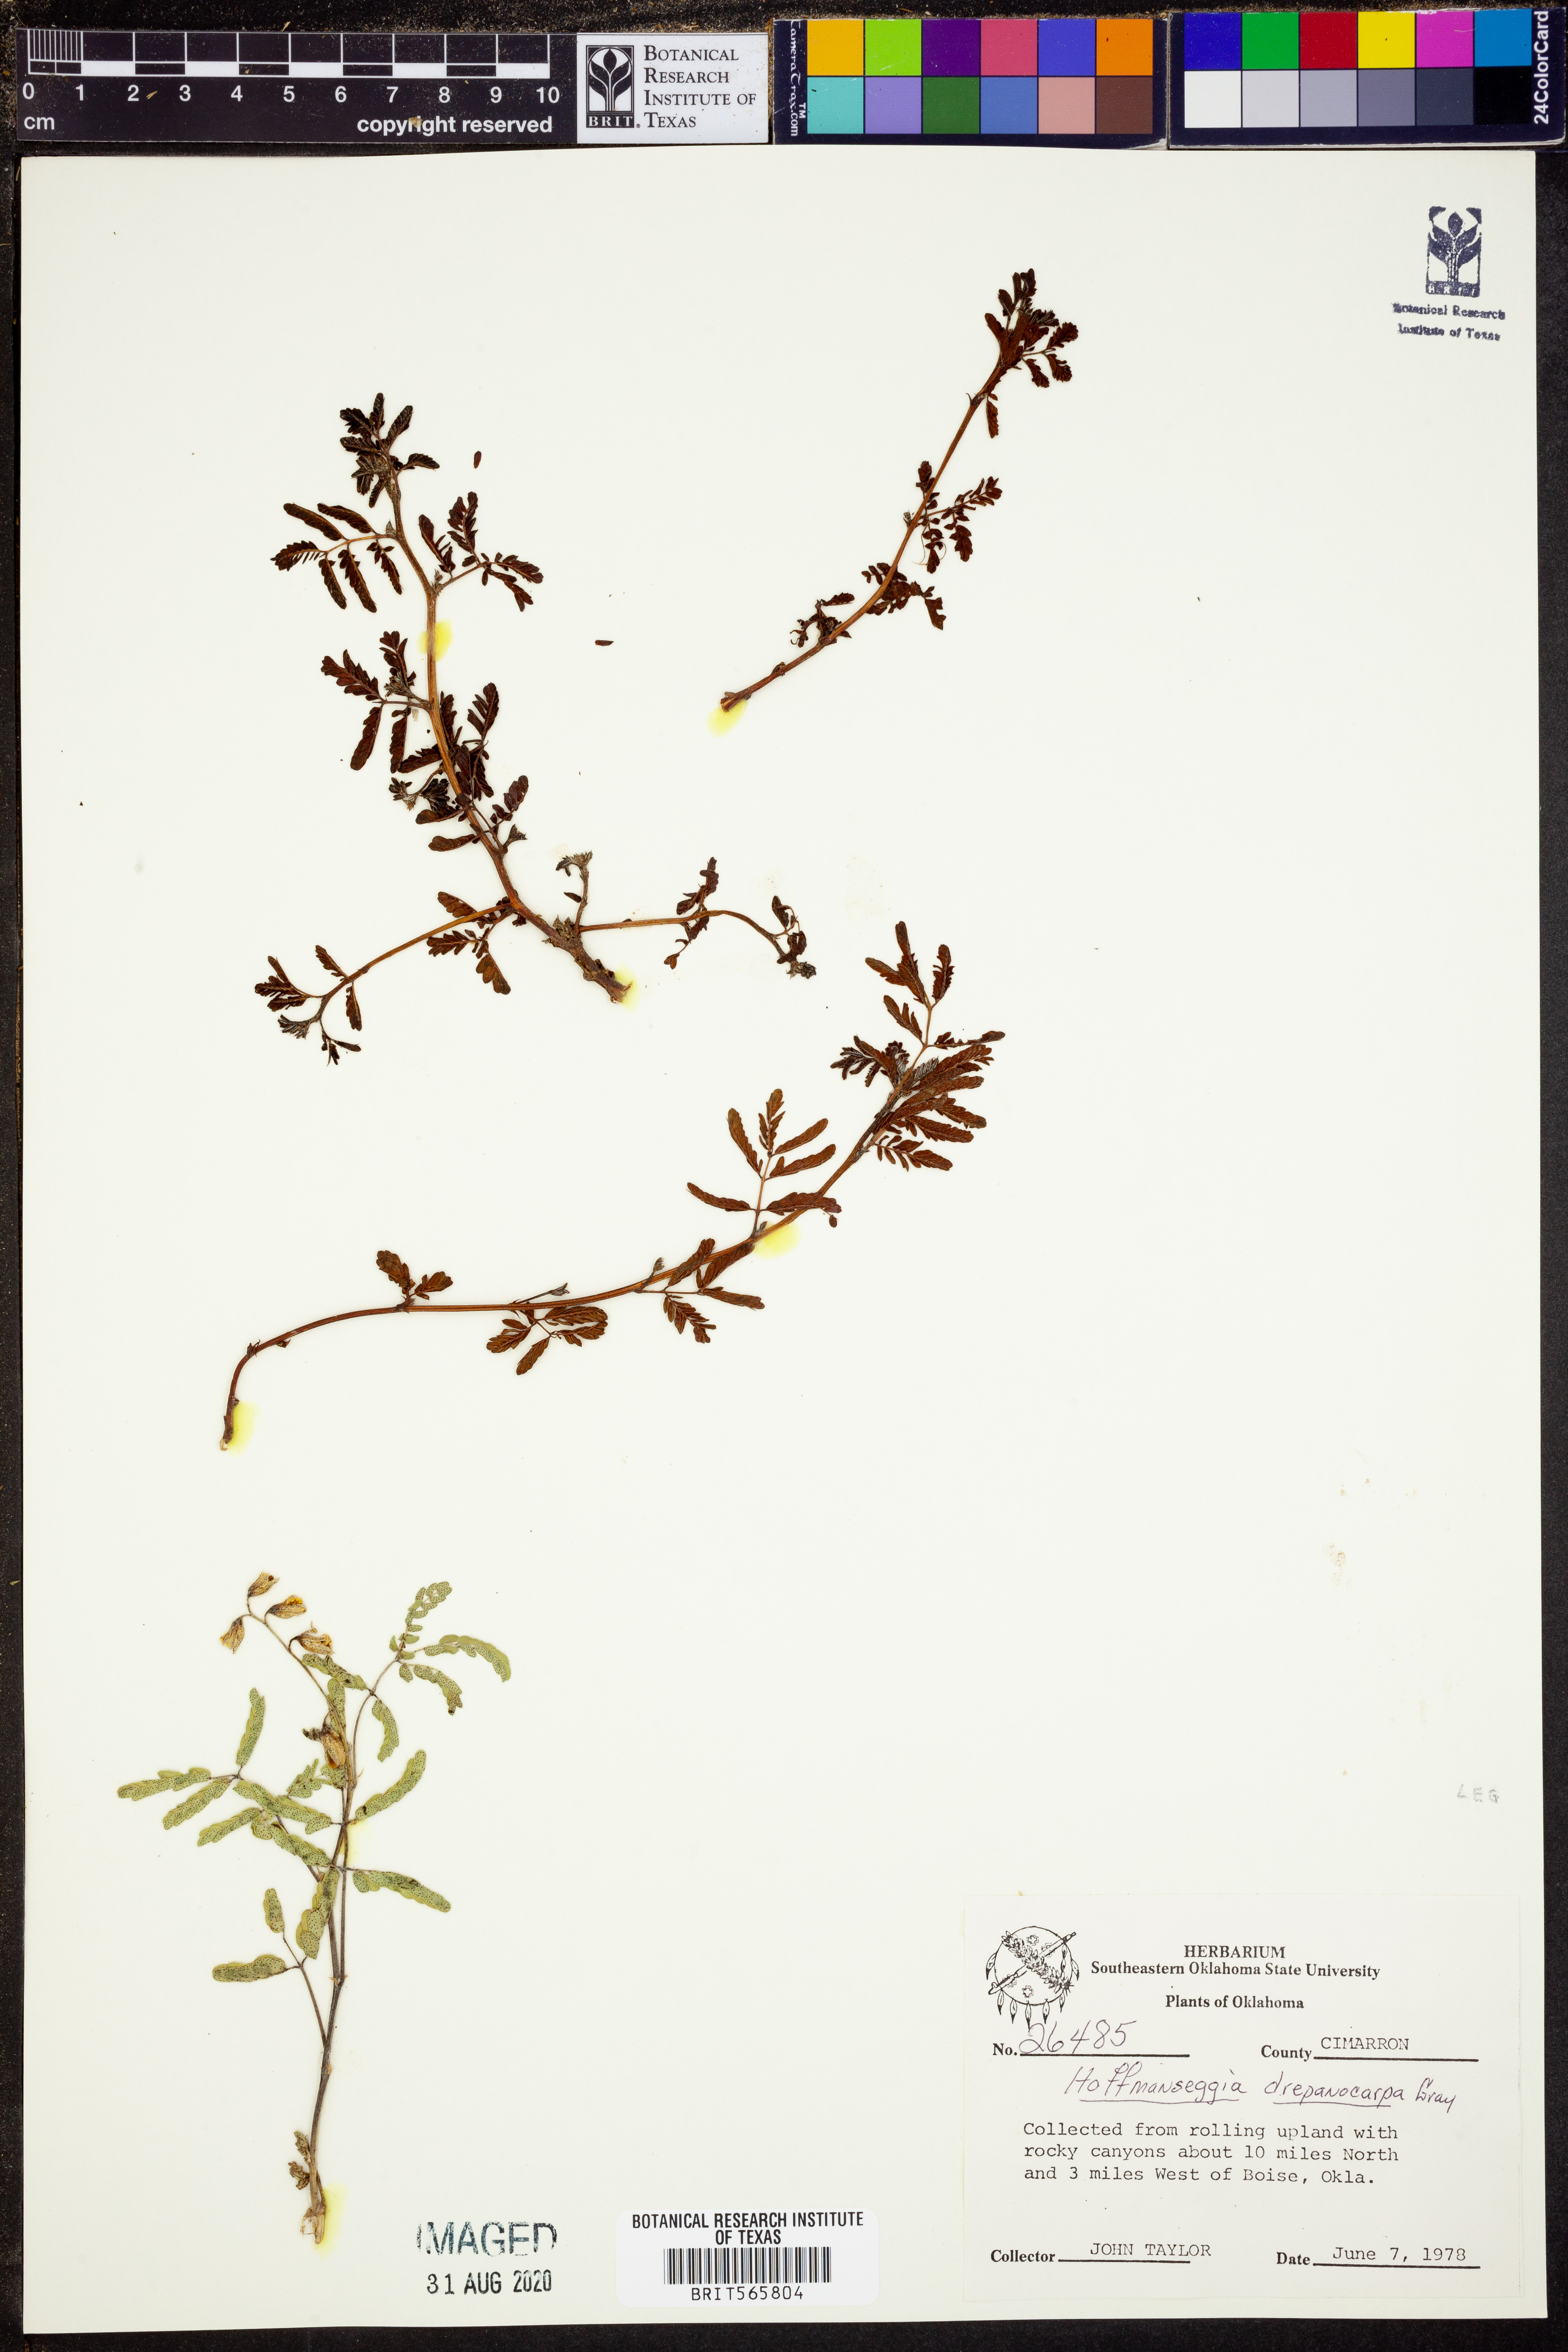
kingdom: Plantae
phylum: Tracheophyta
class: Magnoliopsida
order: Fabales
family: Fabaceae
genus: Hoffmannseggia
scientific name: Hoffmannseggia drepanocarpa
